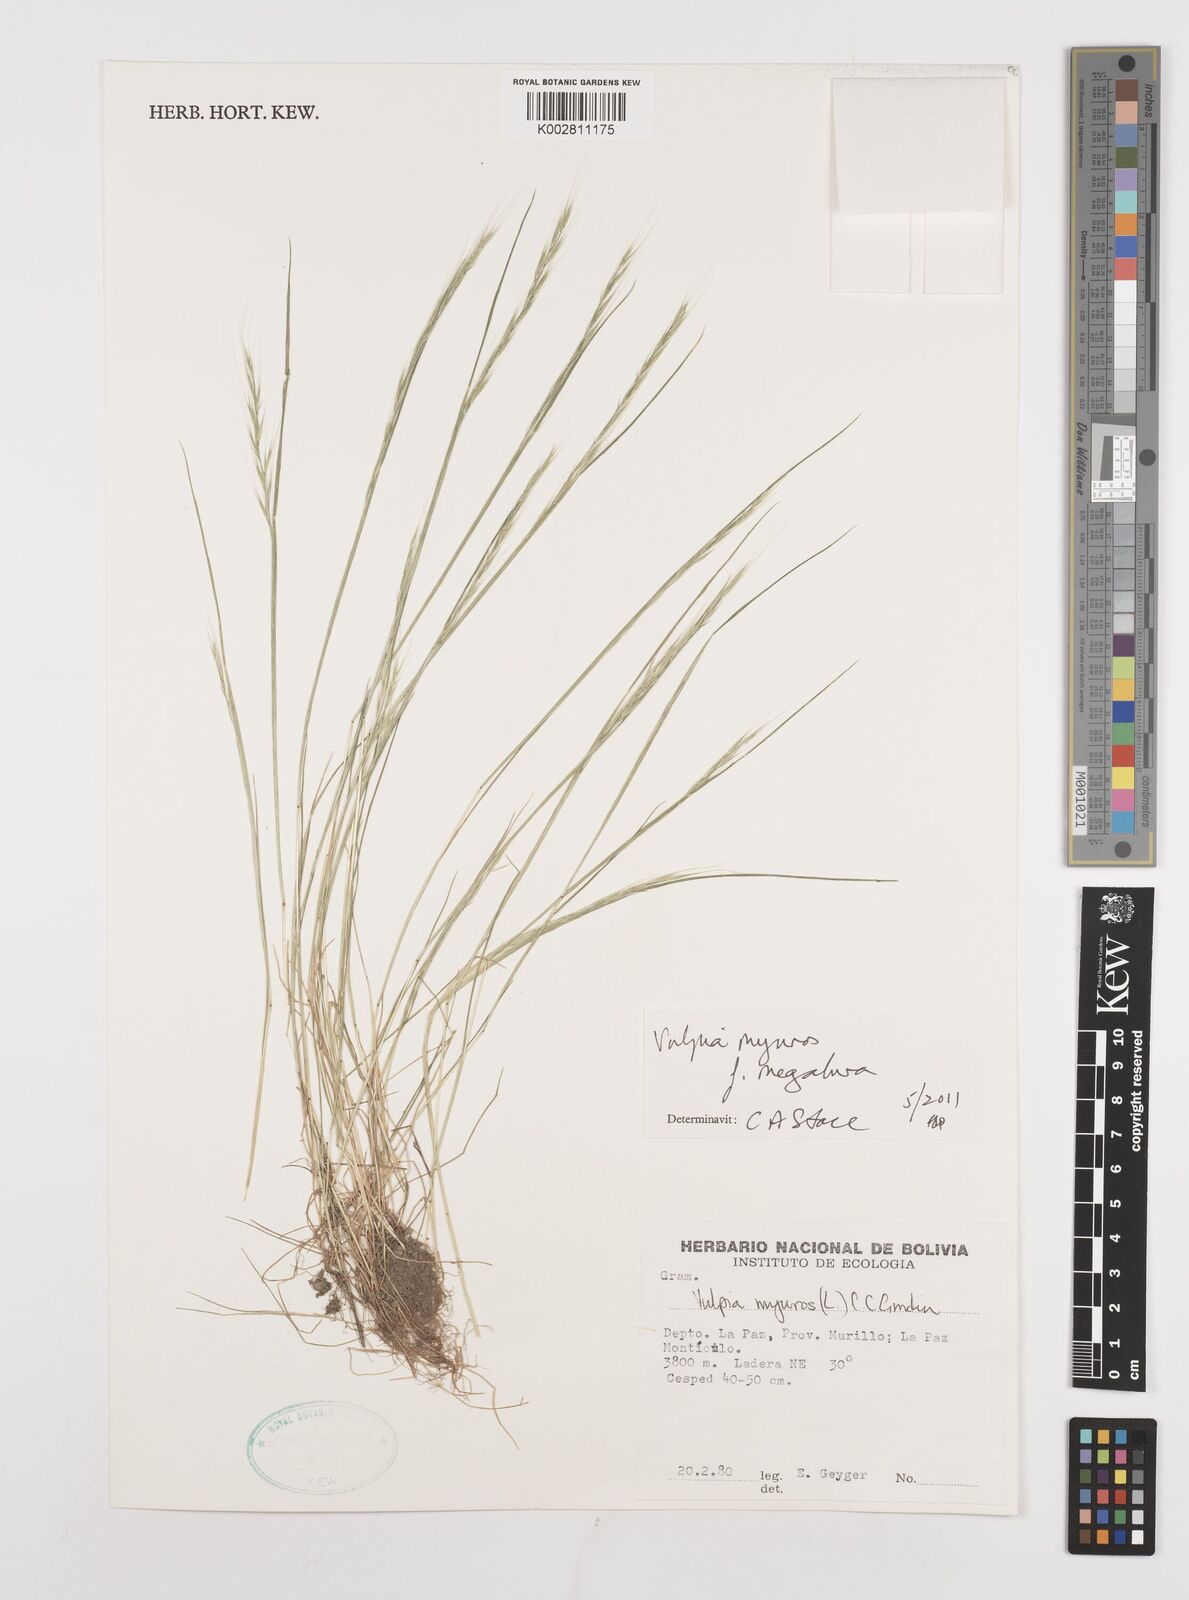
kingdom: Plantae
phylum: Tracheophyta
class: Liliopsida
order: Poales
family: Poaceae
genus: Festuca
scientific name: Festuca myuros
